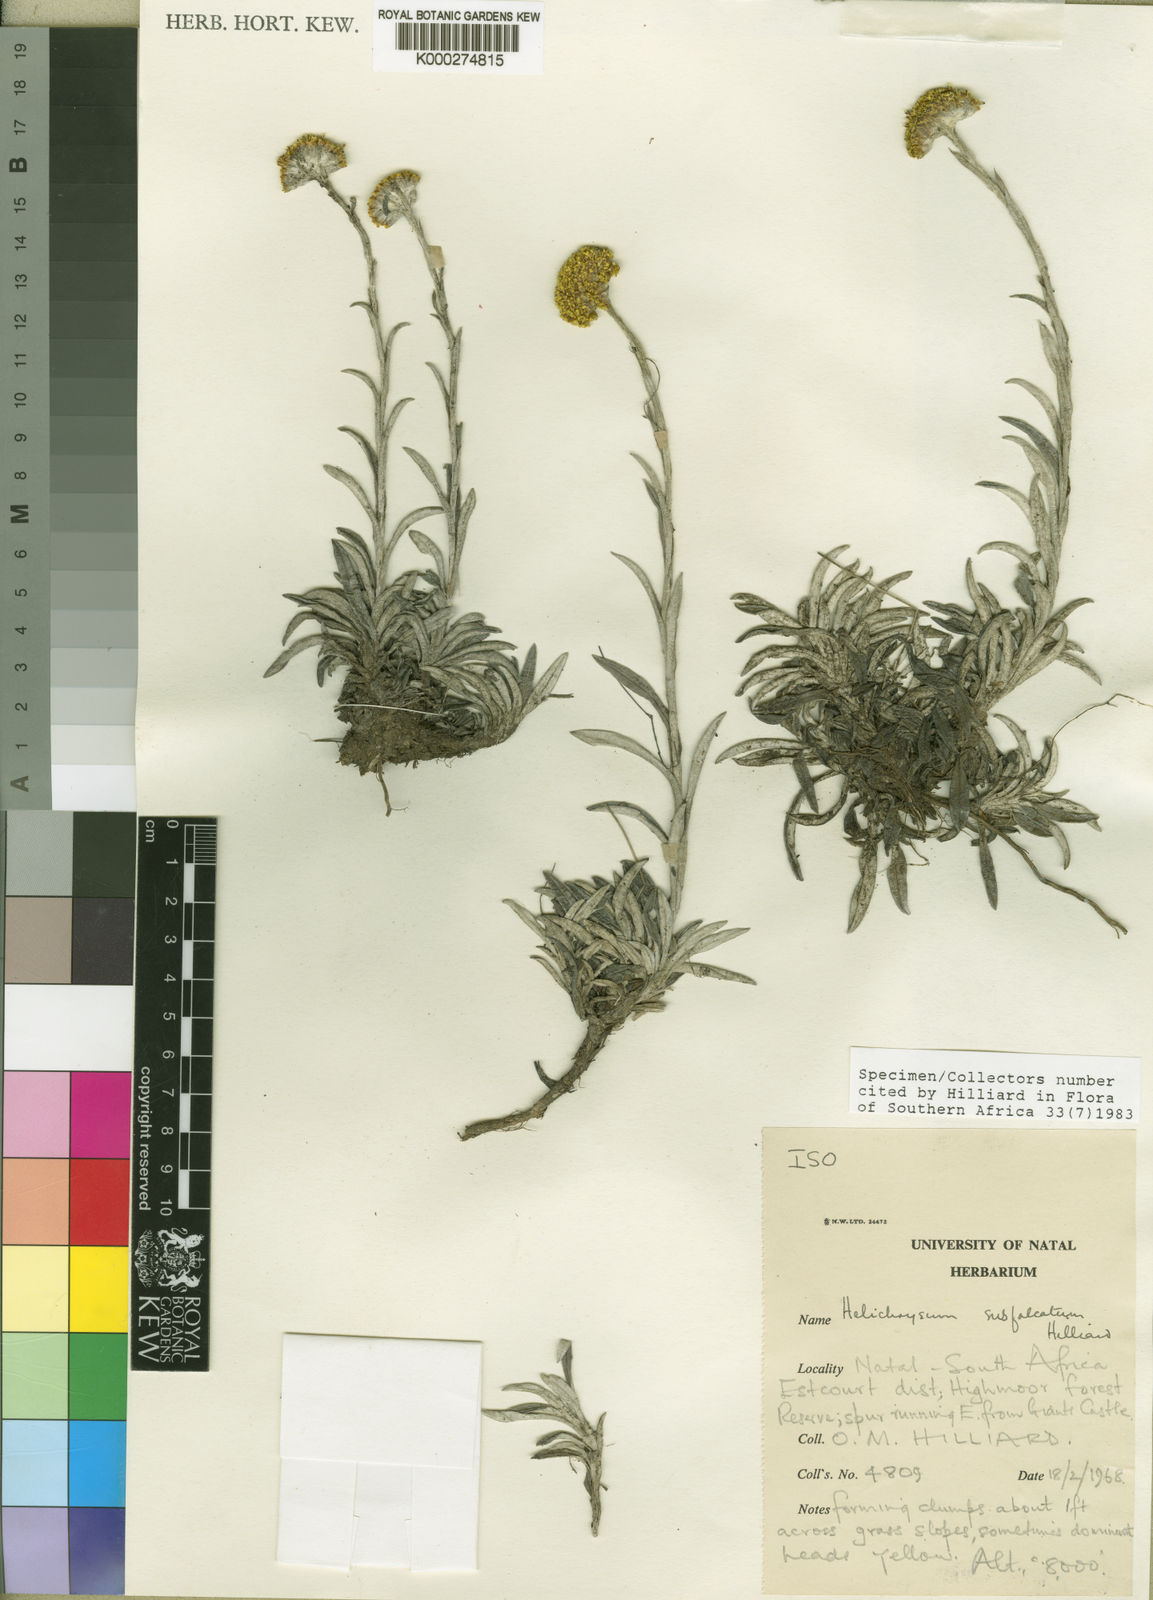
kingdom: Plantae
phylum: Tracheophyta
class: Magnoliopsida
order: Asterales
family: Asteraceae
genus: Helichrysum
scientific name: Helichrysum subfalcatum
